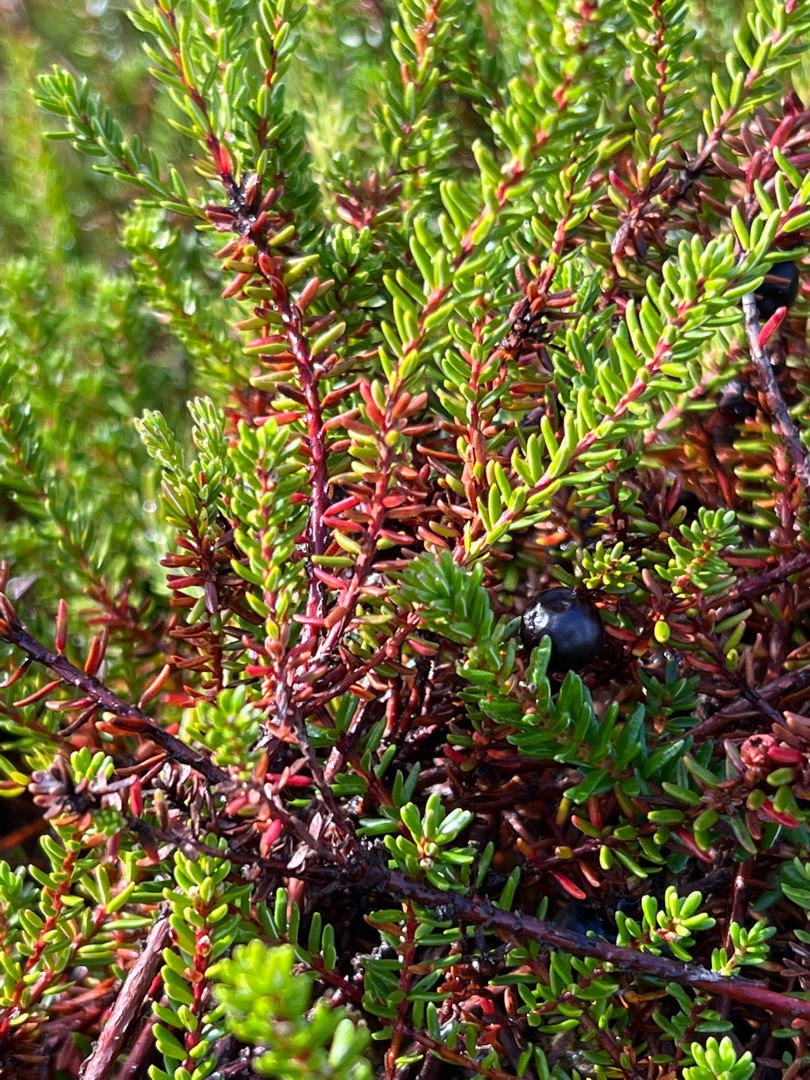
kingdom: Plantae
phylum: Tracheophyta
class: Magnoliopsida
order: Ericales
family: Ericaceae
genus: Empetrum
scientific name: Empetrum nigrum
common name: Revling
